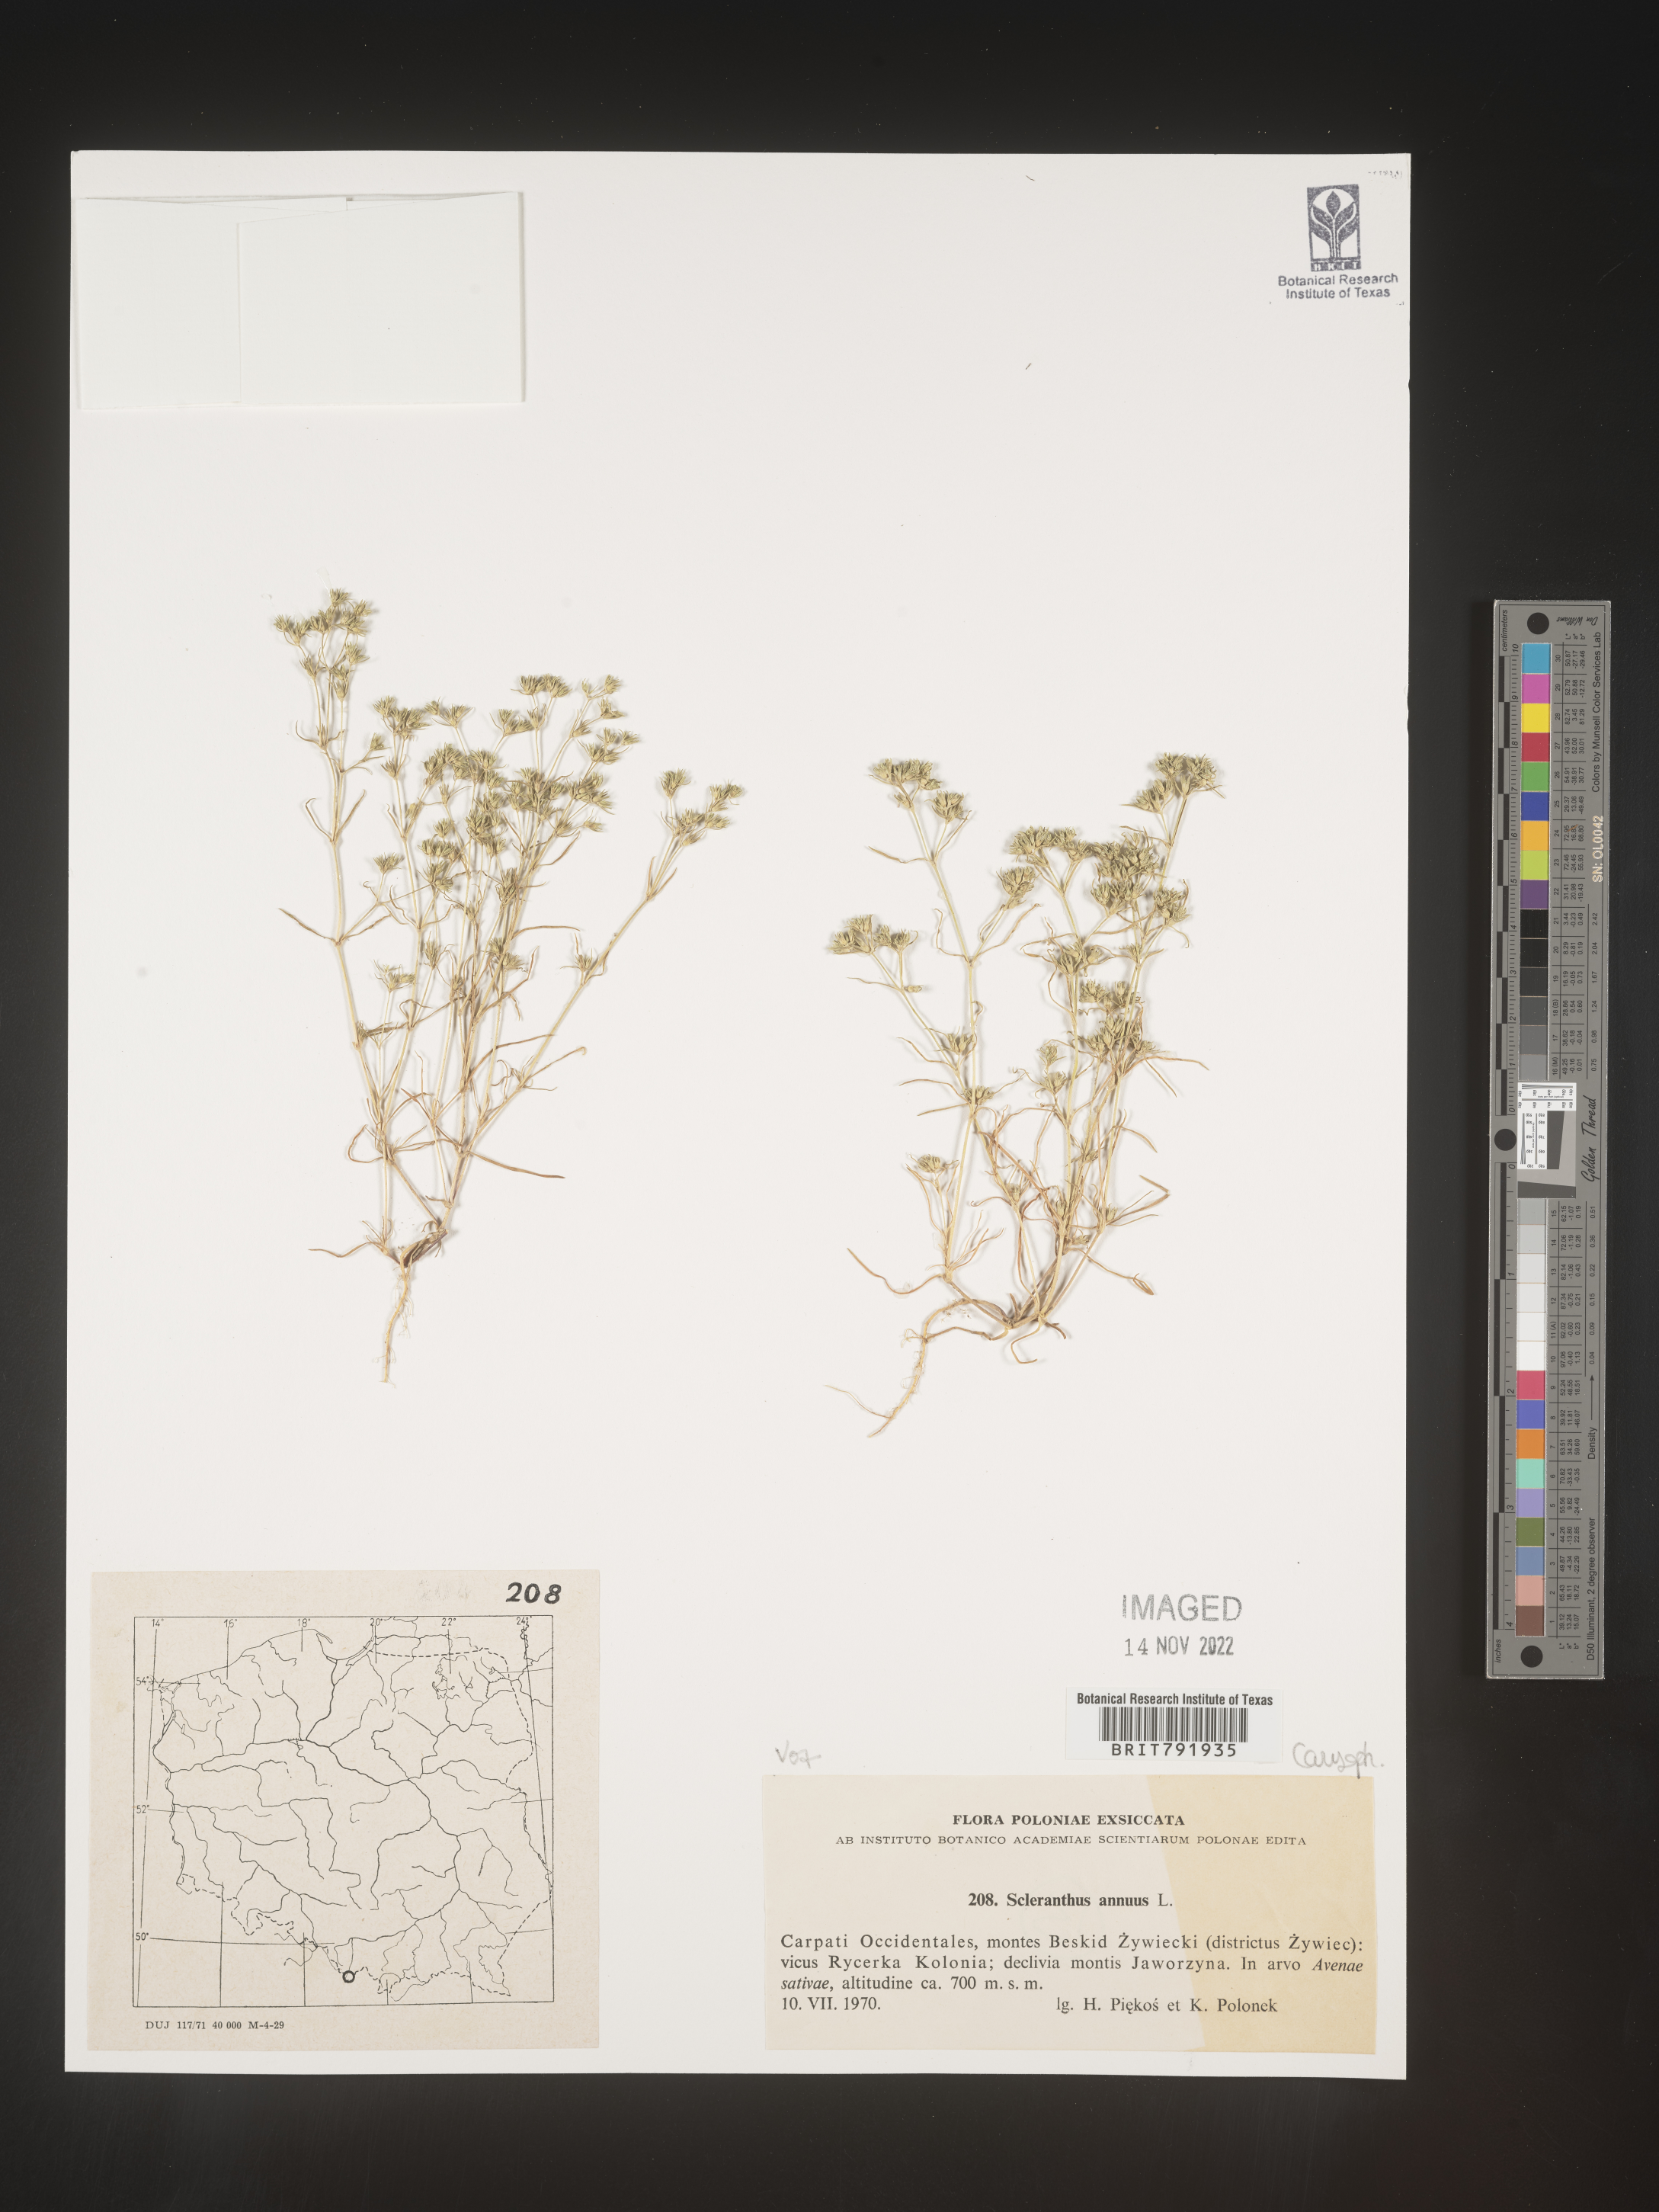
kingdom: Plantae
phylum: Tracheophyta
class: Magnoliopsida
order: Caryophyllales
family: Caryophyllaceae
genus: Scleranthus
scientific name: Scleranthus
